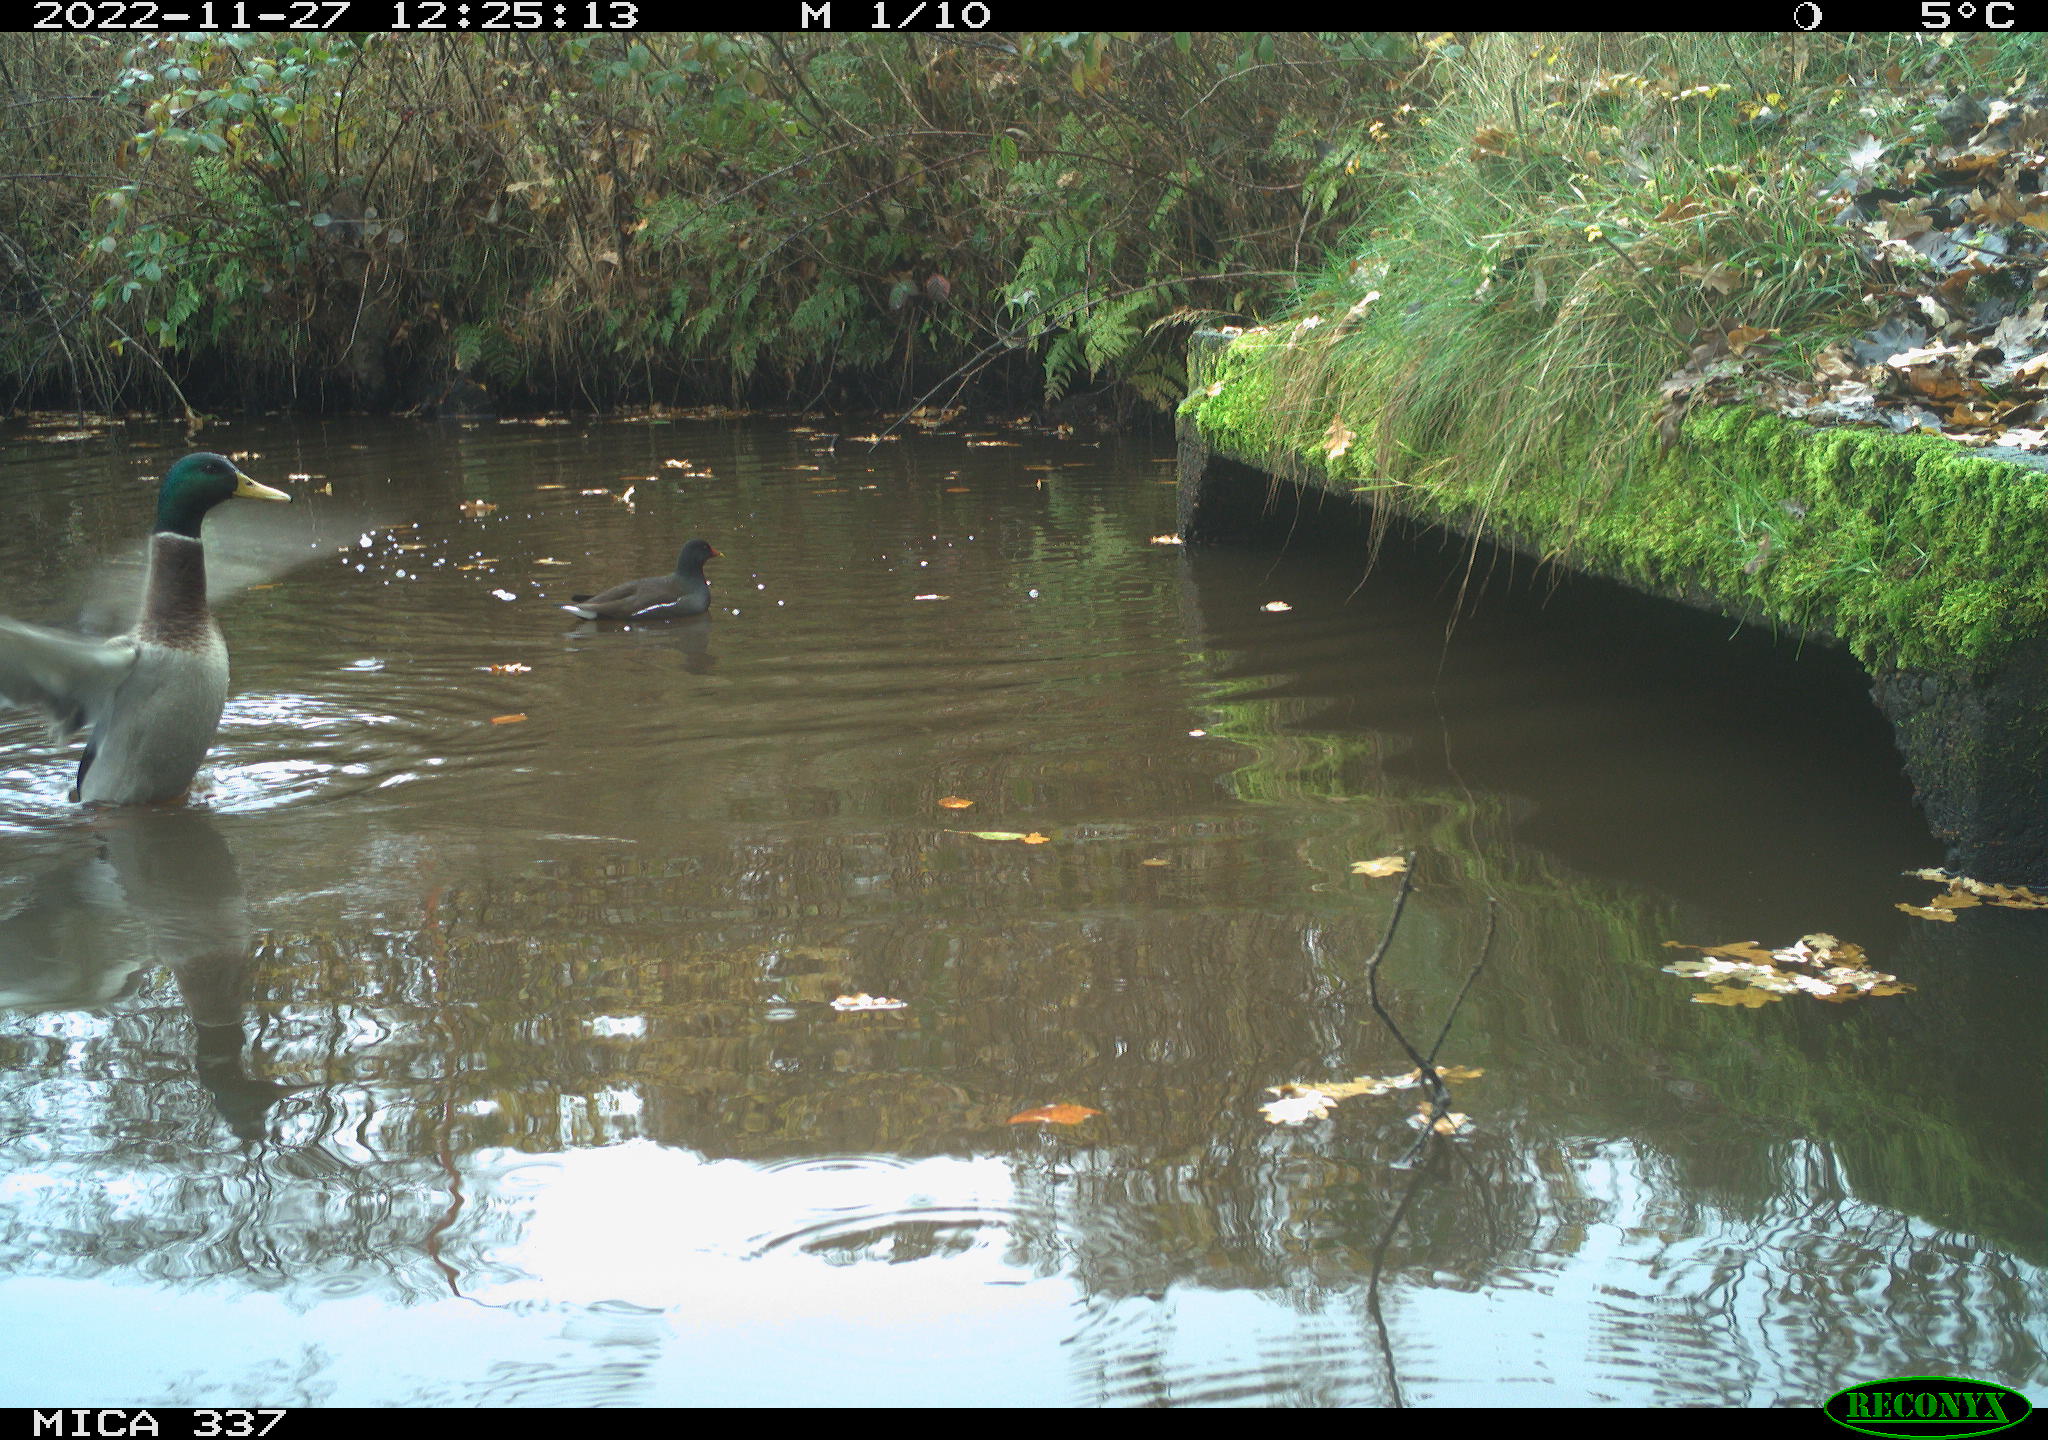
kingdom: Animalia
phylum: Chordata
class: Aves
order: Anseriformes
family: Anatidae
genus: Anas
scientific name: Anas platyrhynchos
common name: Mallard
